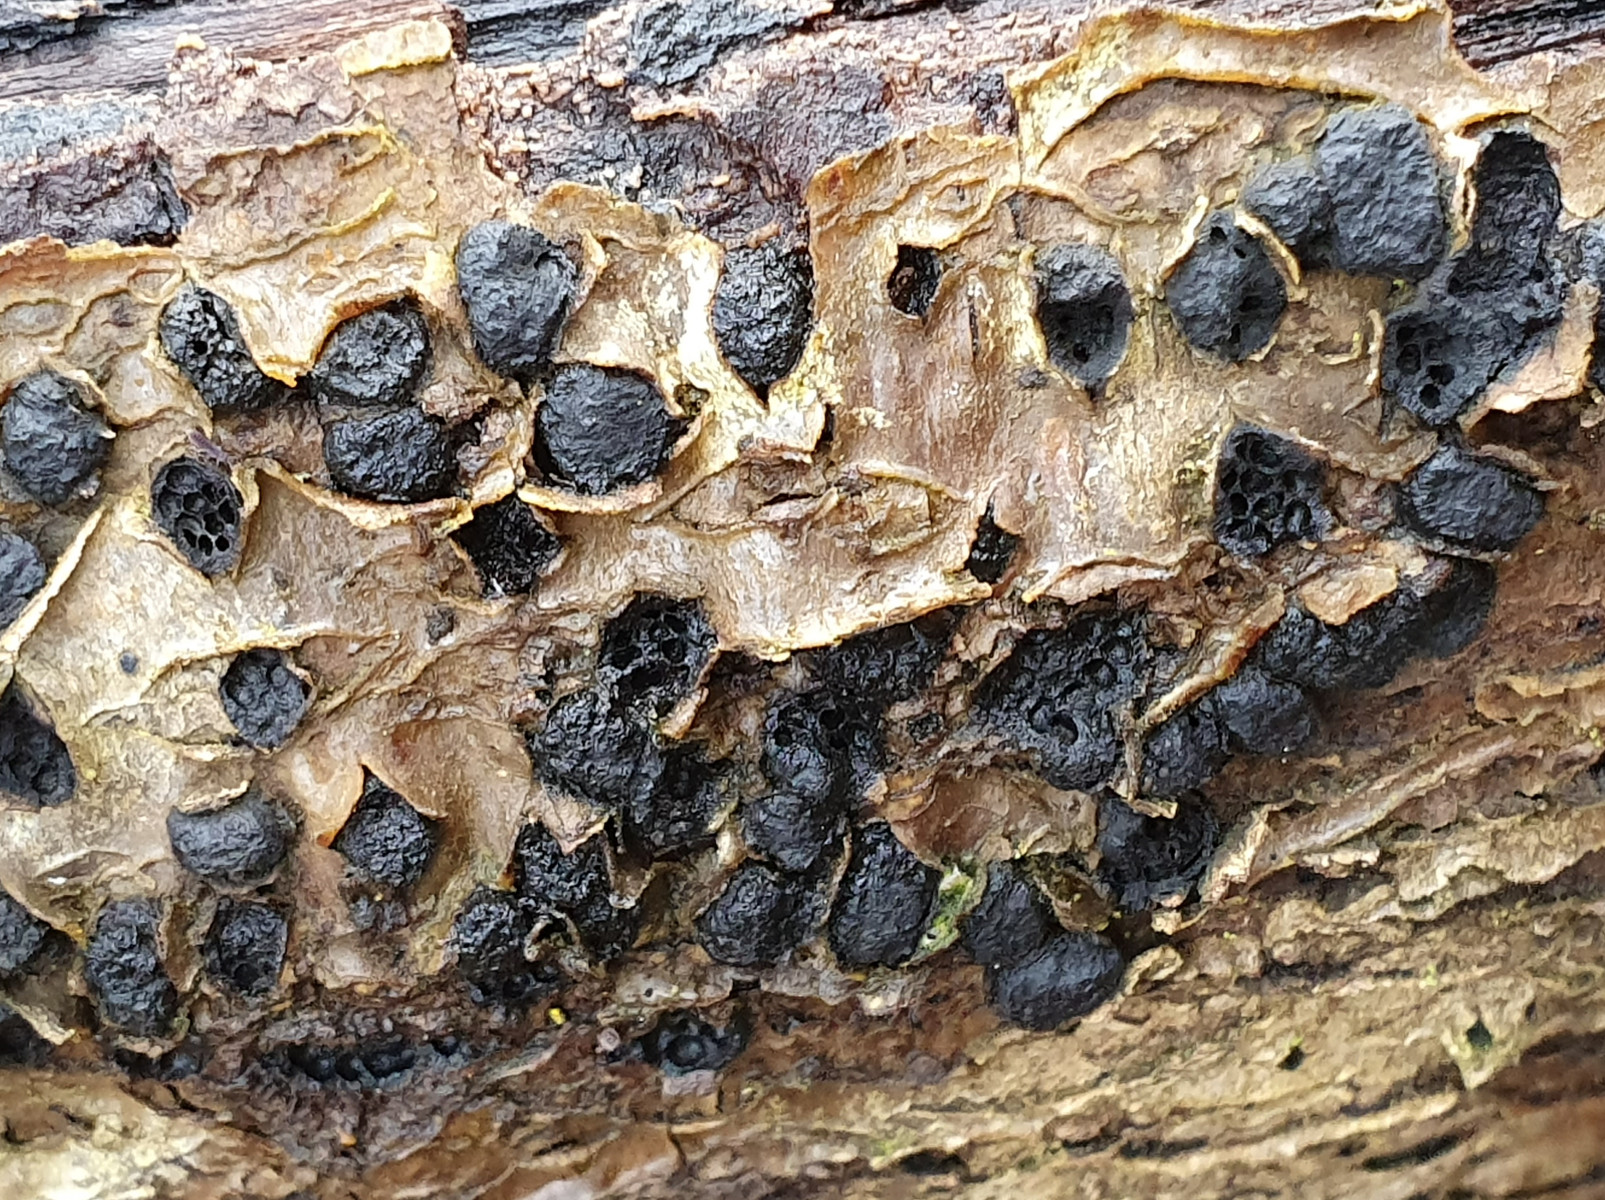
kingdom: Fungi
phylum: Ascomycota
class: Sordariomycetes
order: Xylariales
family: Diatrypaceae
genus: Diatrypella
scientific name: Diatrypella quercina
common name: ege-kulskorpe
